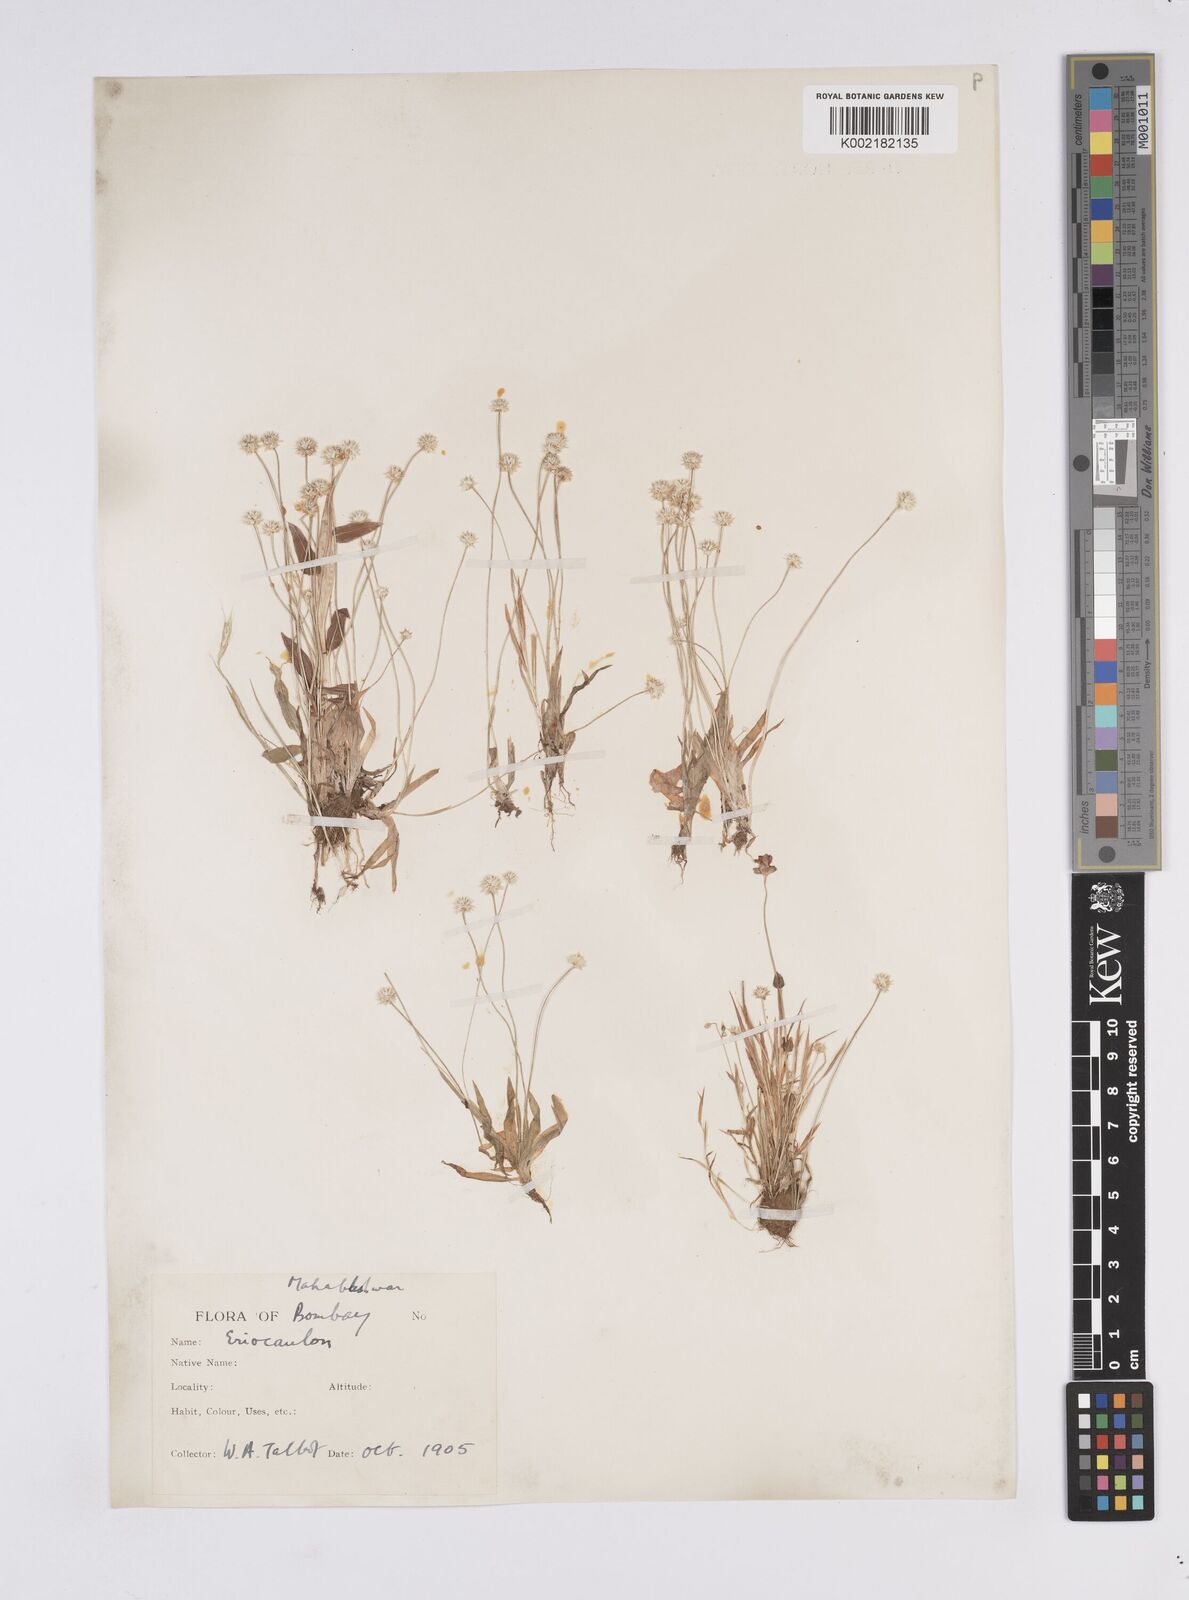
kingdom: Plantae
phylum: Tracheophyta
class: Liliopsida
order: Poales
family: Eriocaulaceae
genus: Eriocaulon
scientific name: Eriocaulon
